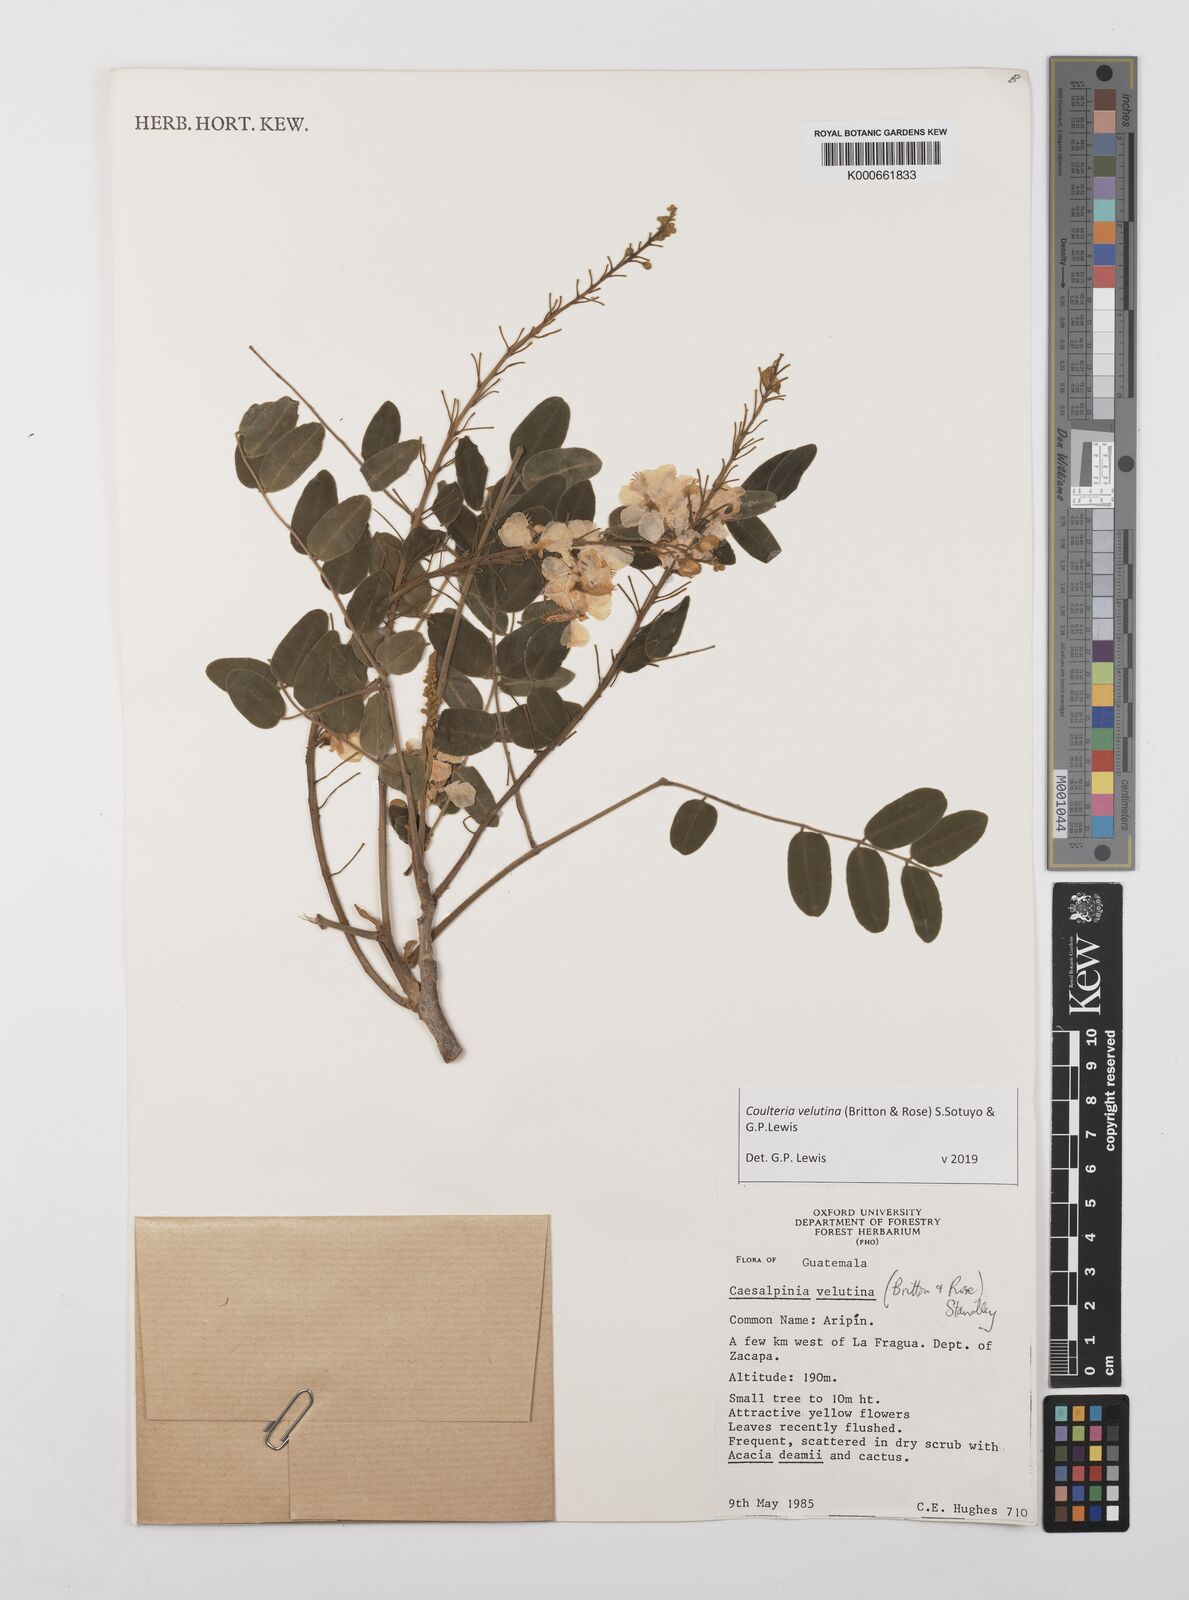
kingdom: Plantae
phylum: Tracheophyta
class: Magnoliopsida
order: Fabales
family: Fabaceae
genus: Coulteria
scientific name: Coulteria velutina
